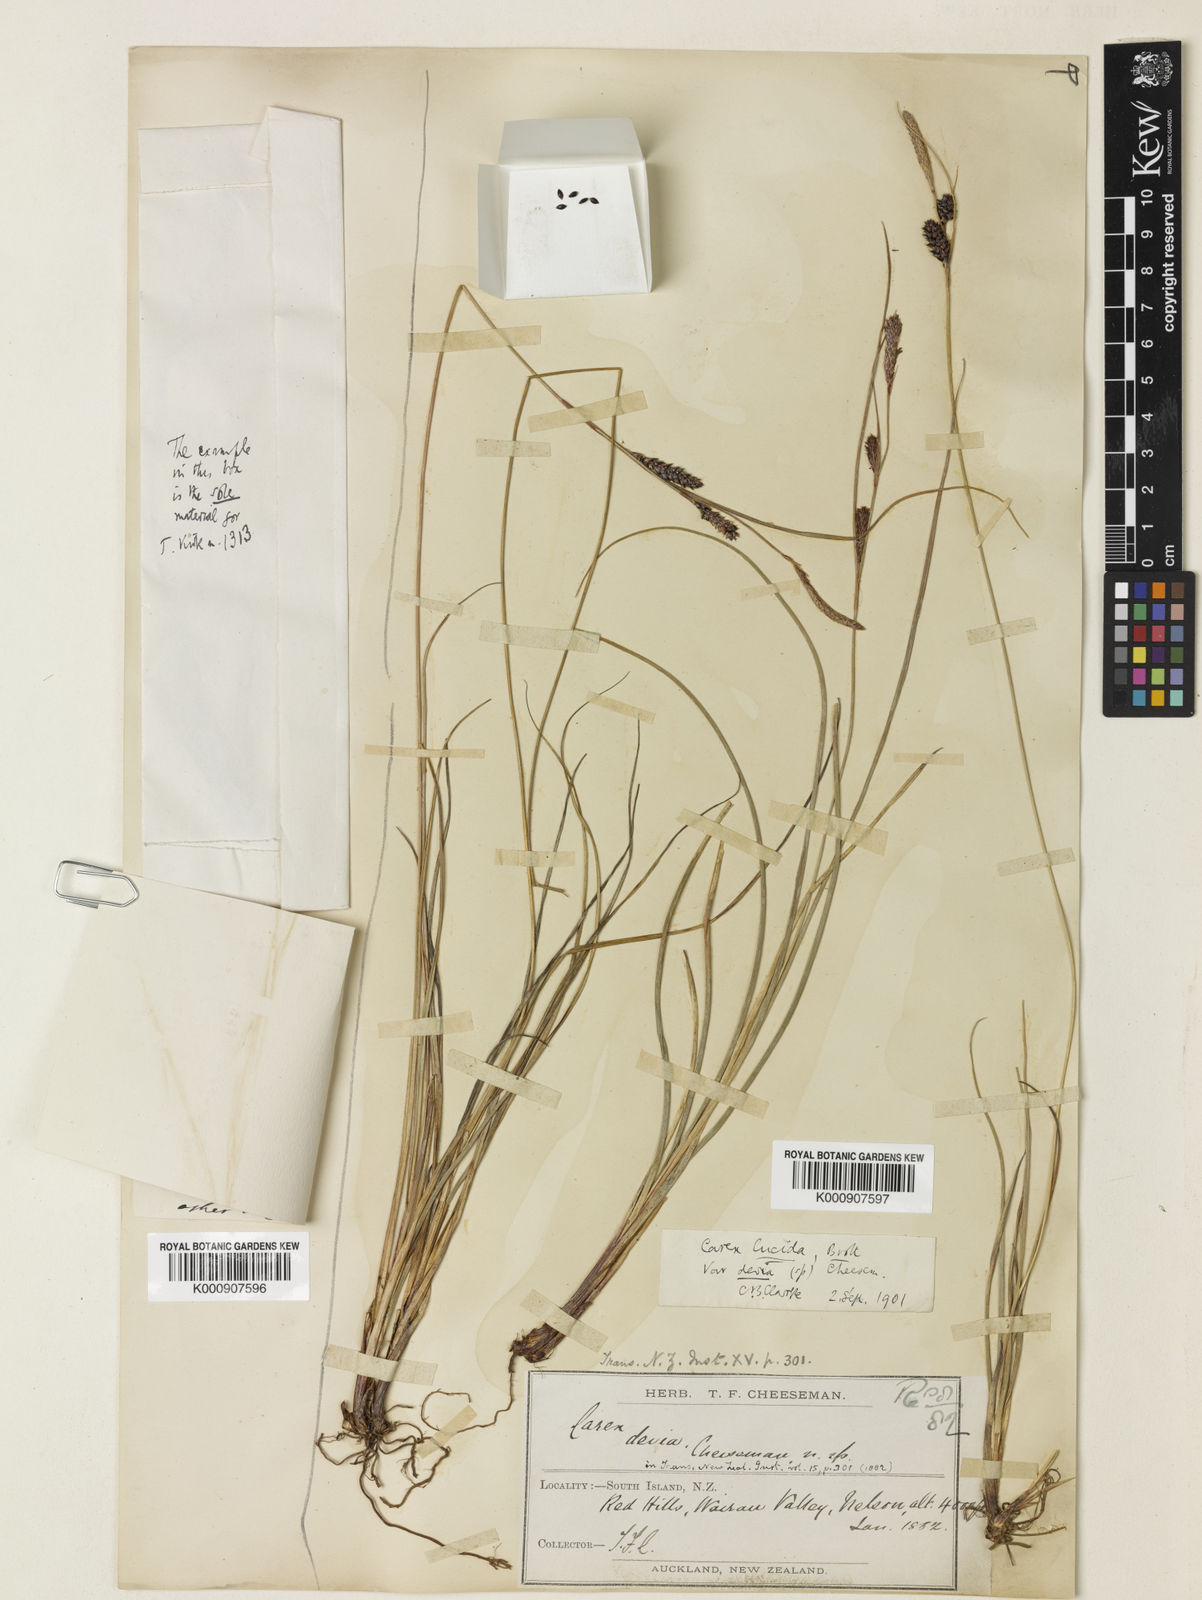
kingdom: Plantae
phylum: Tracheophyta
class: Liliopsida
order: Poales
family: Cyperaceae
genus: Carex
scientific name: Carex devia
